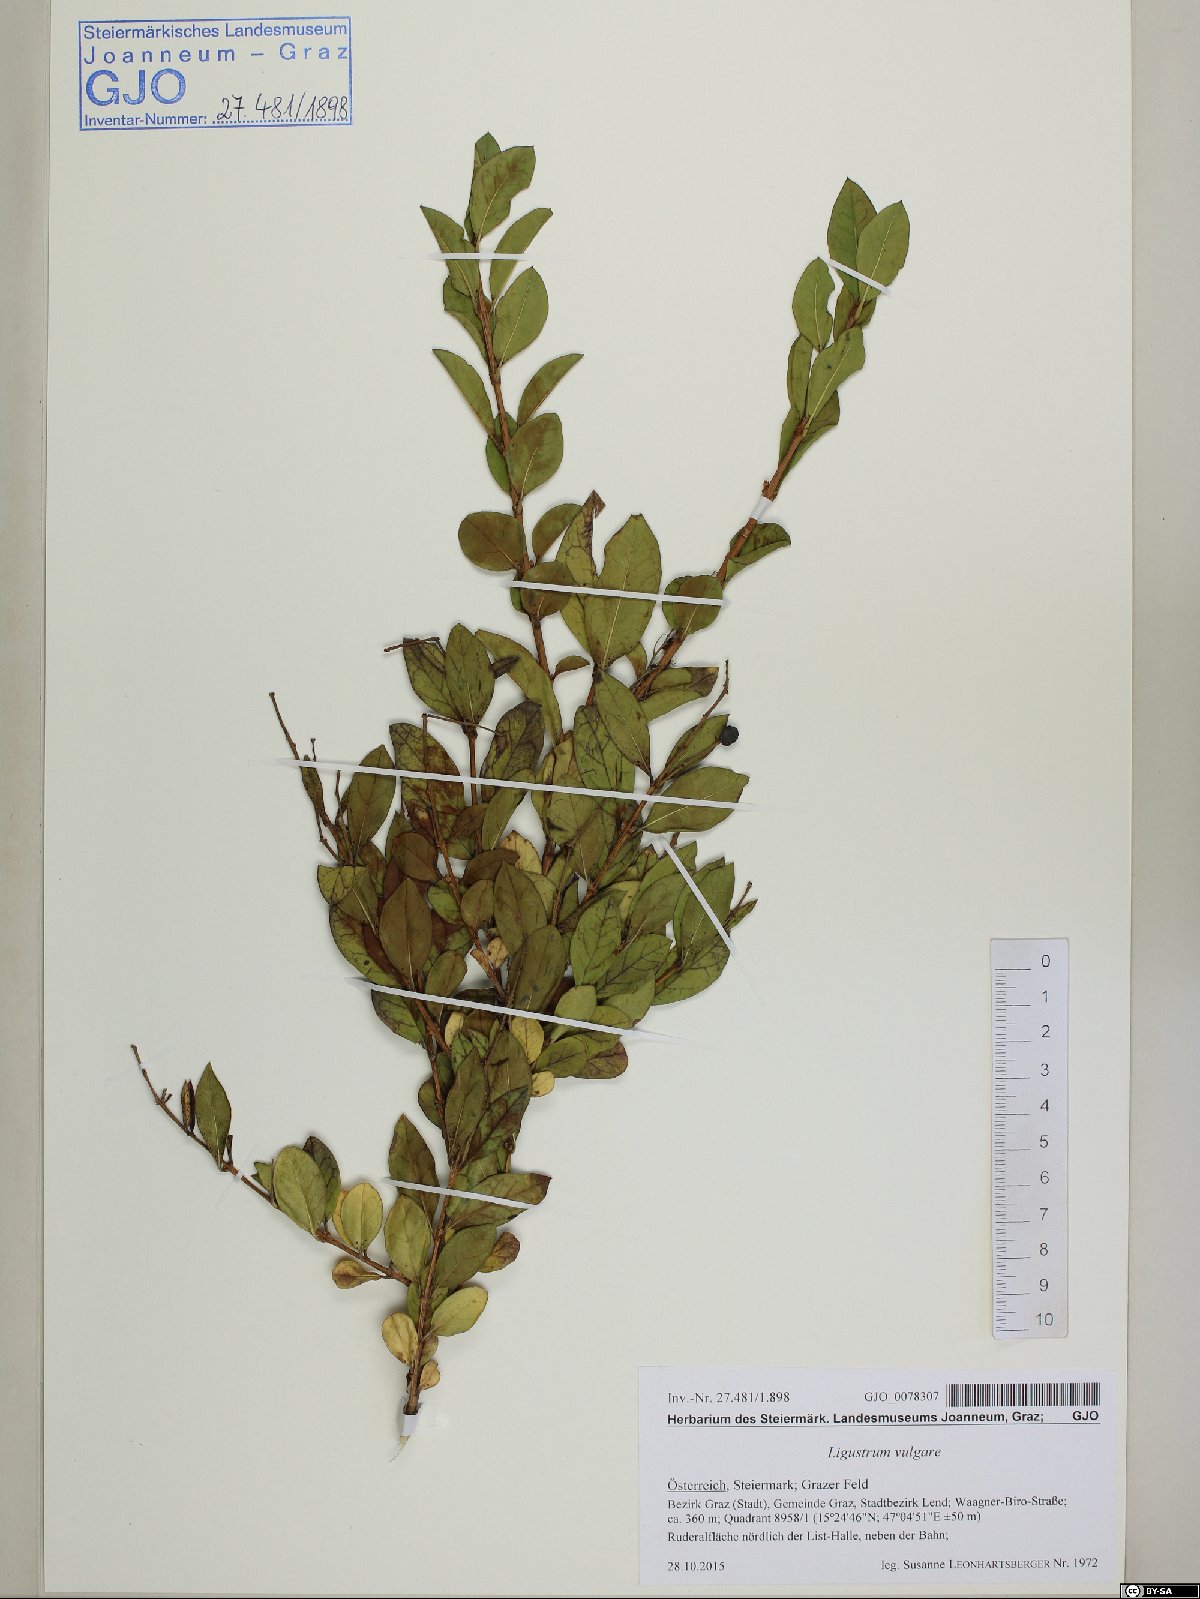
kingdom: Plantae
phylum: Tracheophyta
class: Magnoliopsida
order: Lamiales
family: Oleaceae
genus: Ligustrum
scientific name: Ligustrum vulgare
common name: Wild privet
